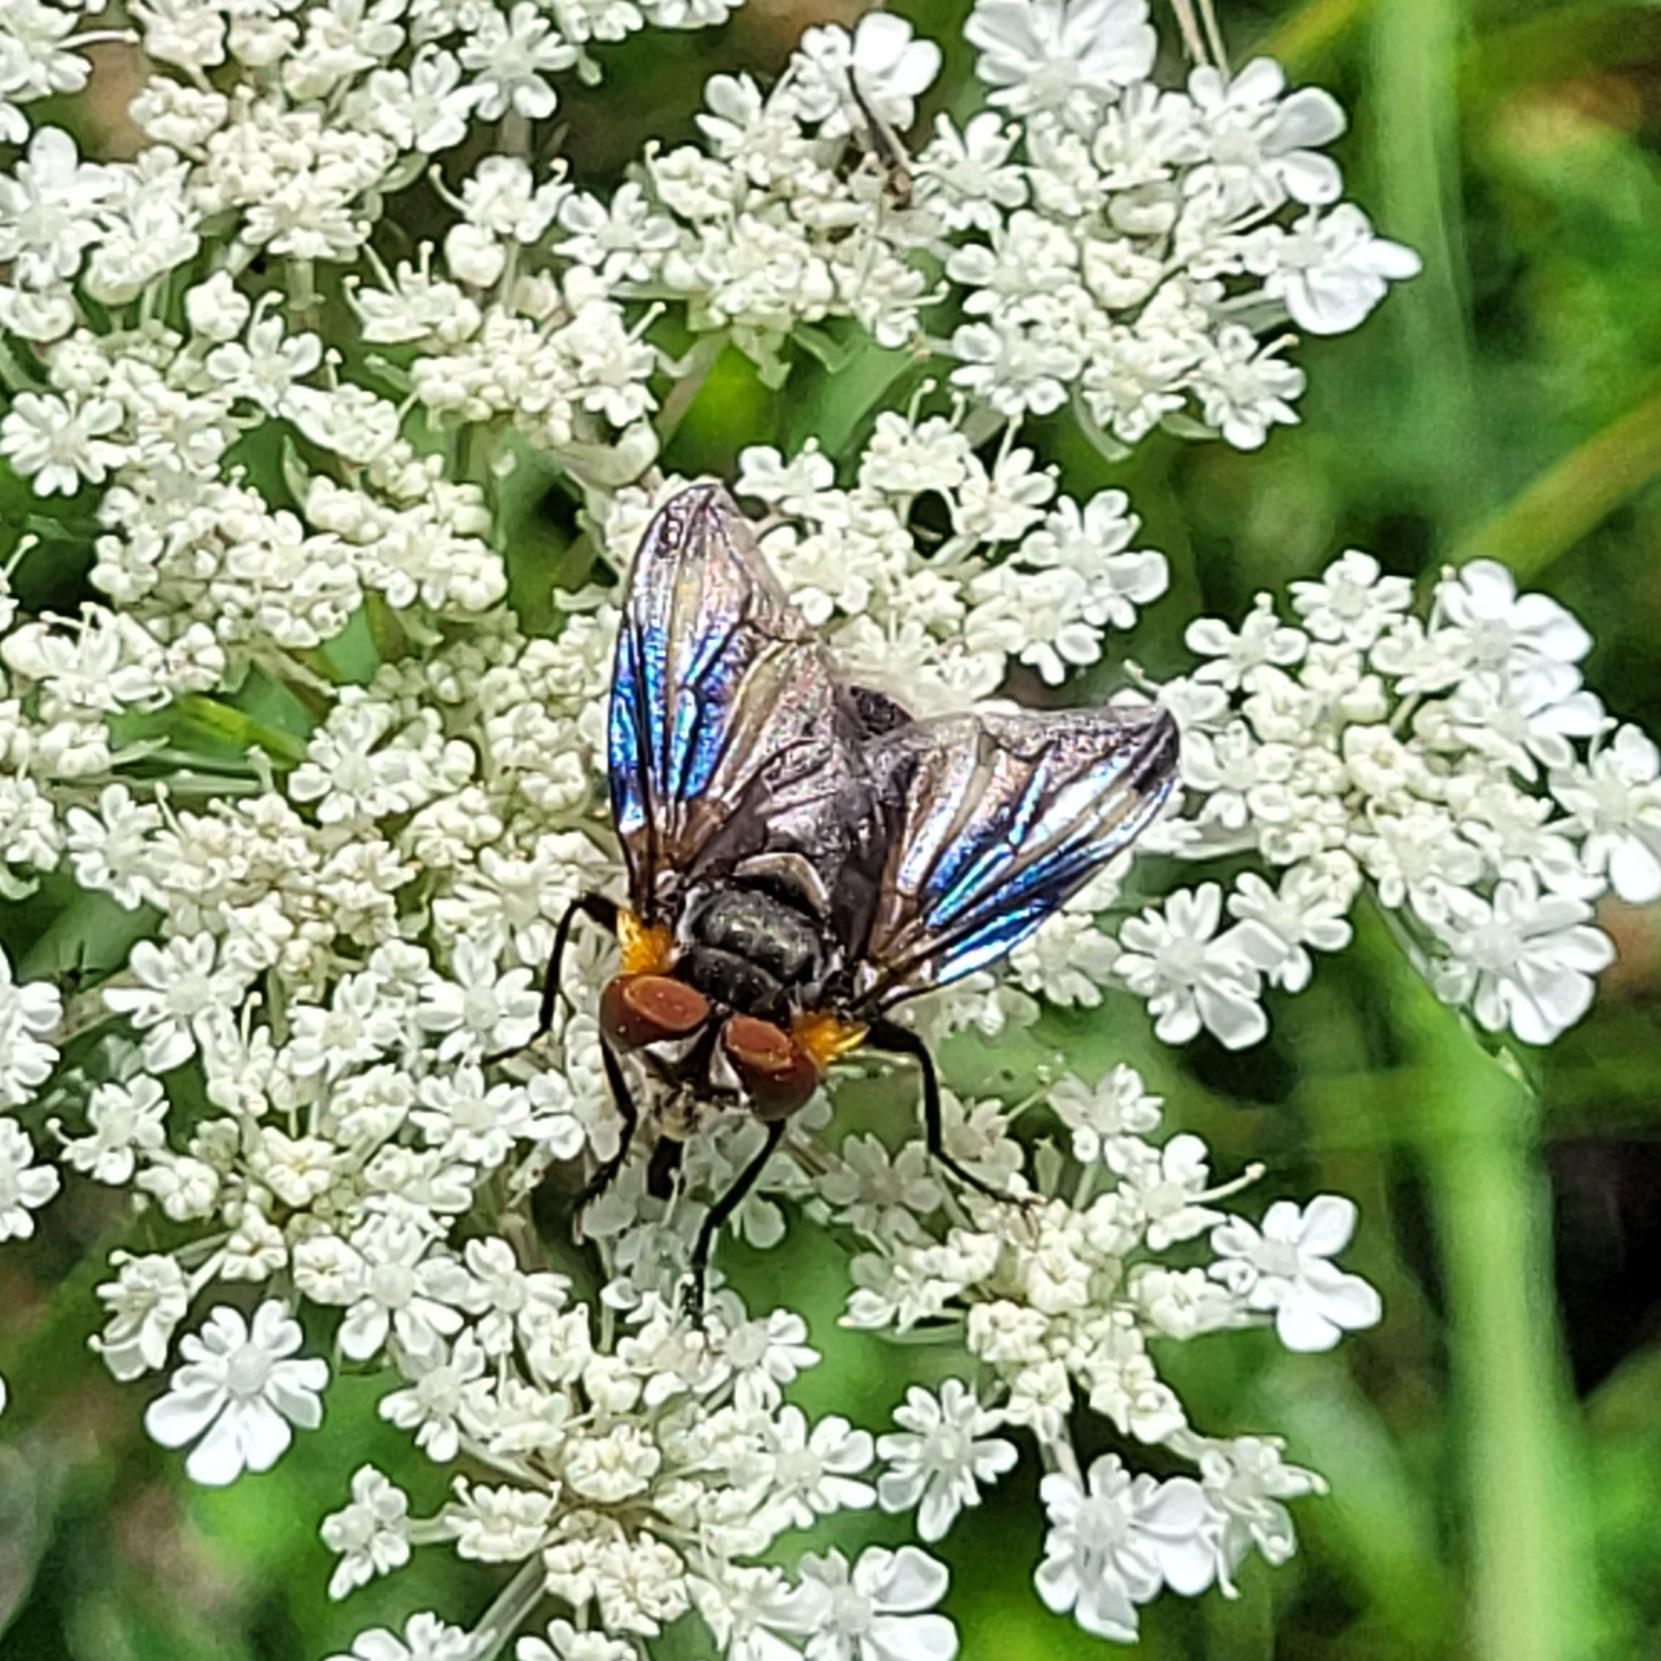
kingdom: Animalia
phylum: Arthropoda
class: Insecta
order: Diptera
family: Tachinidae
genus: Phasia
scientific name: Phasia hemiptera
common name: Blåvinget pragtsnylteflue
